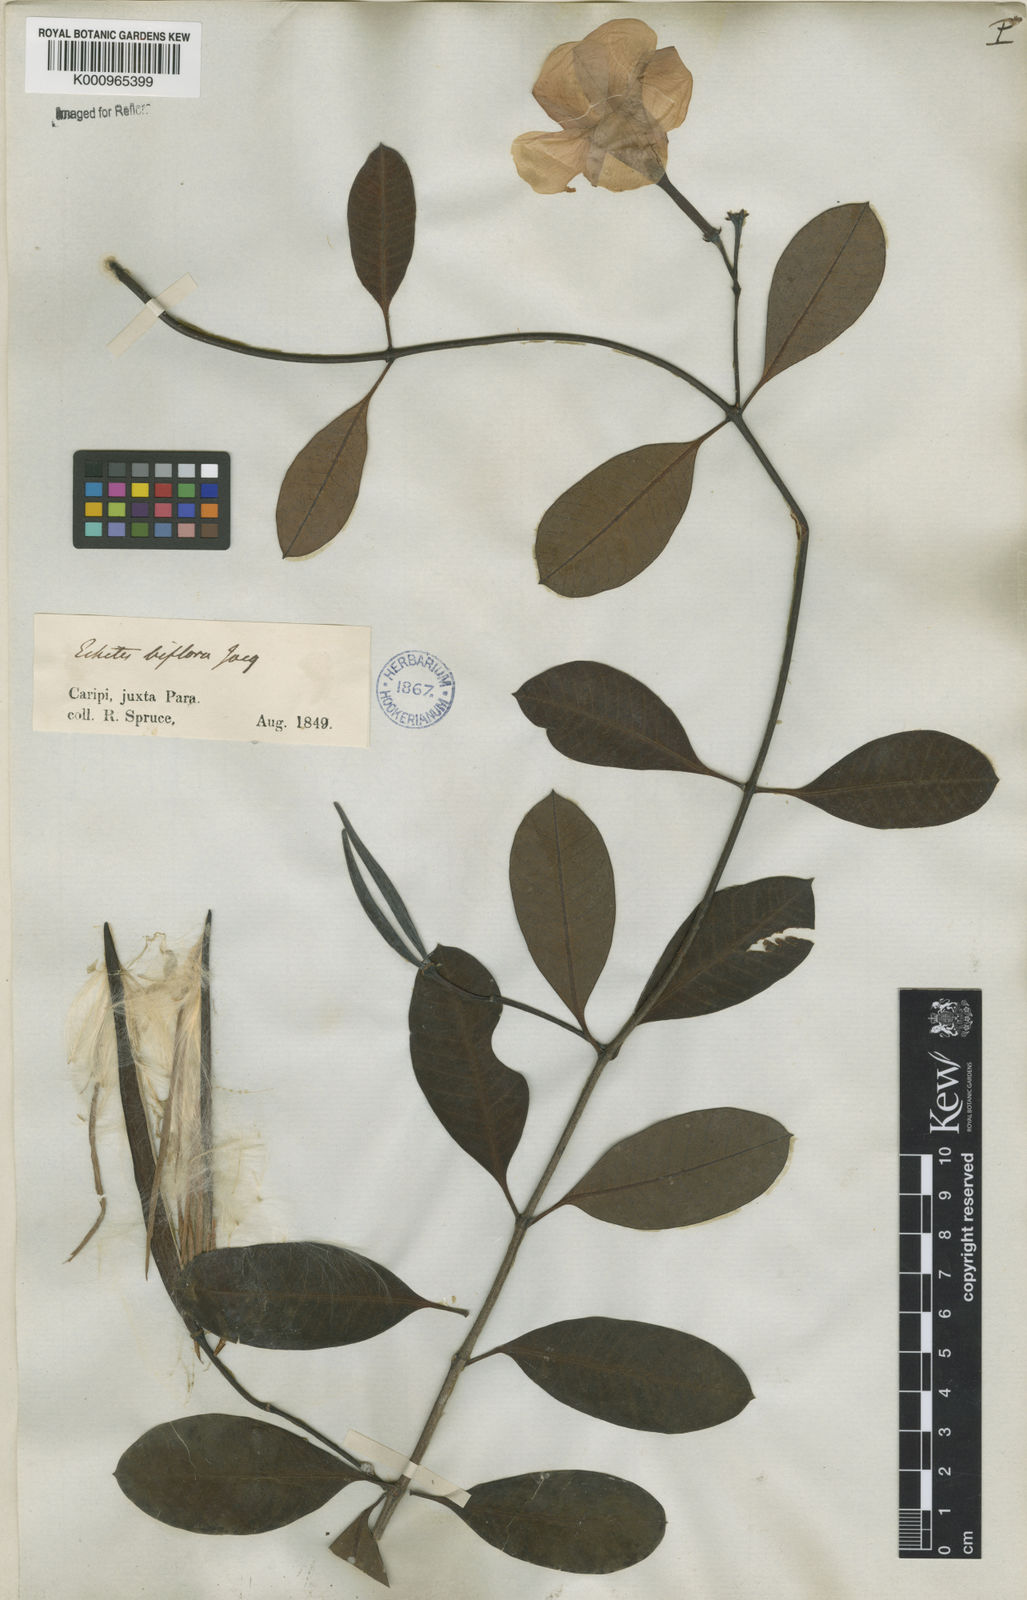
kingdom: Plantae
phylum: Tracheophyta
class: Magnoliopsida
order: Gentianales
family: Apocynaceae
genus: Rhabdadenia
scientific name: Rhabdadenia
